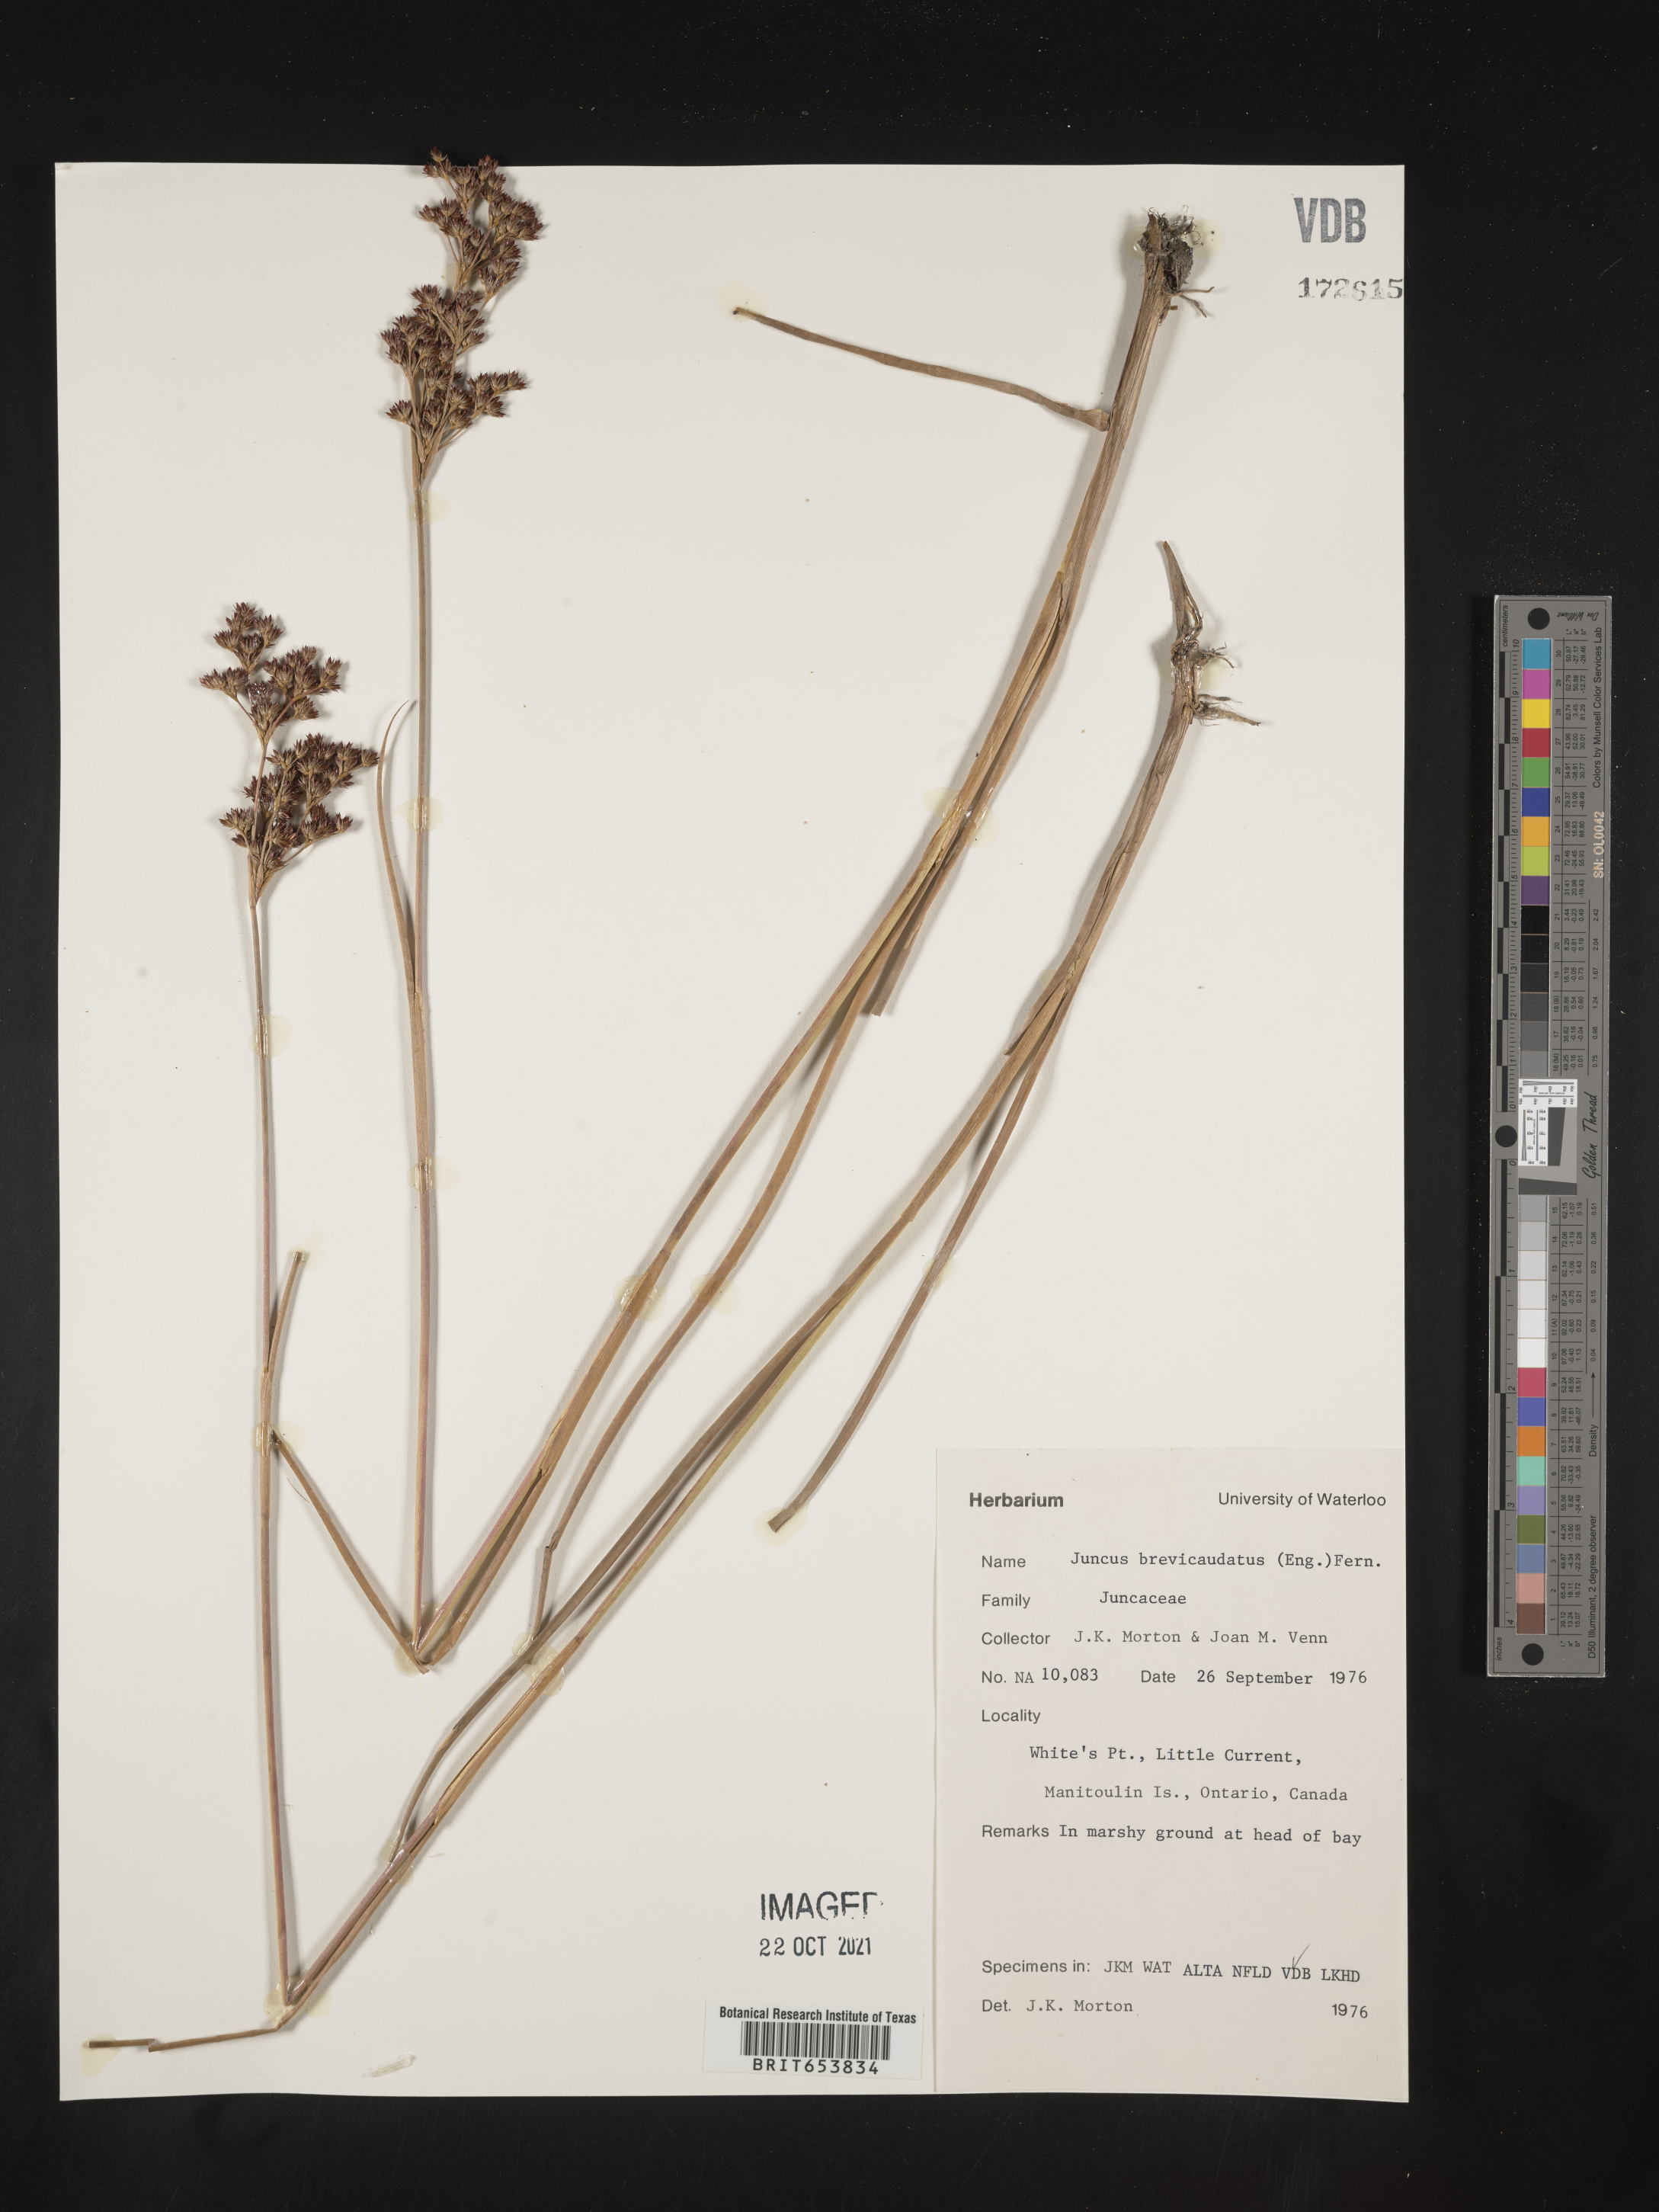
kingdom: Plantae
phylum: Tracheophyta
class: Liliopsida
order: Poales
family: Juncaceae
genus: Juncus
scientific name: Juncus brevicaudatus
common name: Narrow-panicle rush
